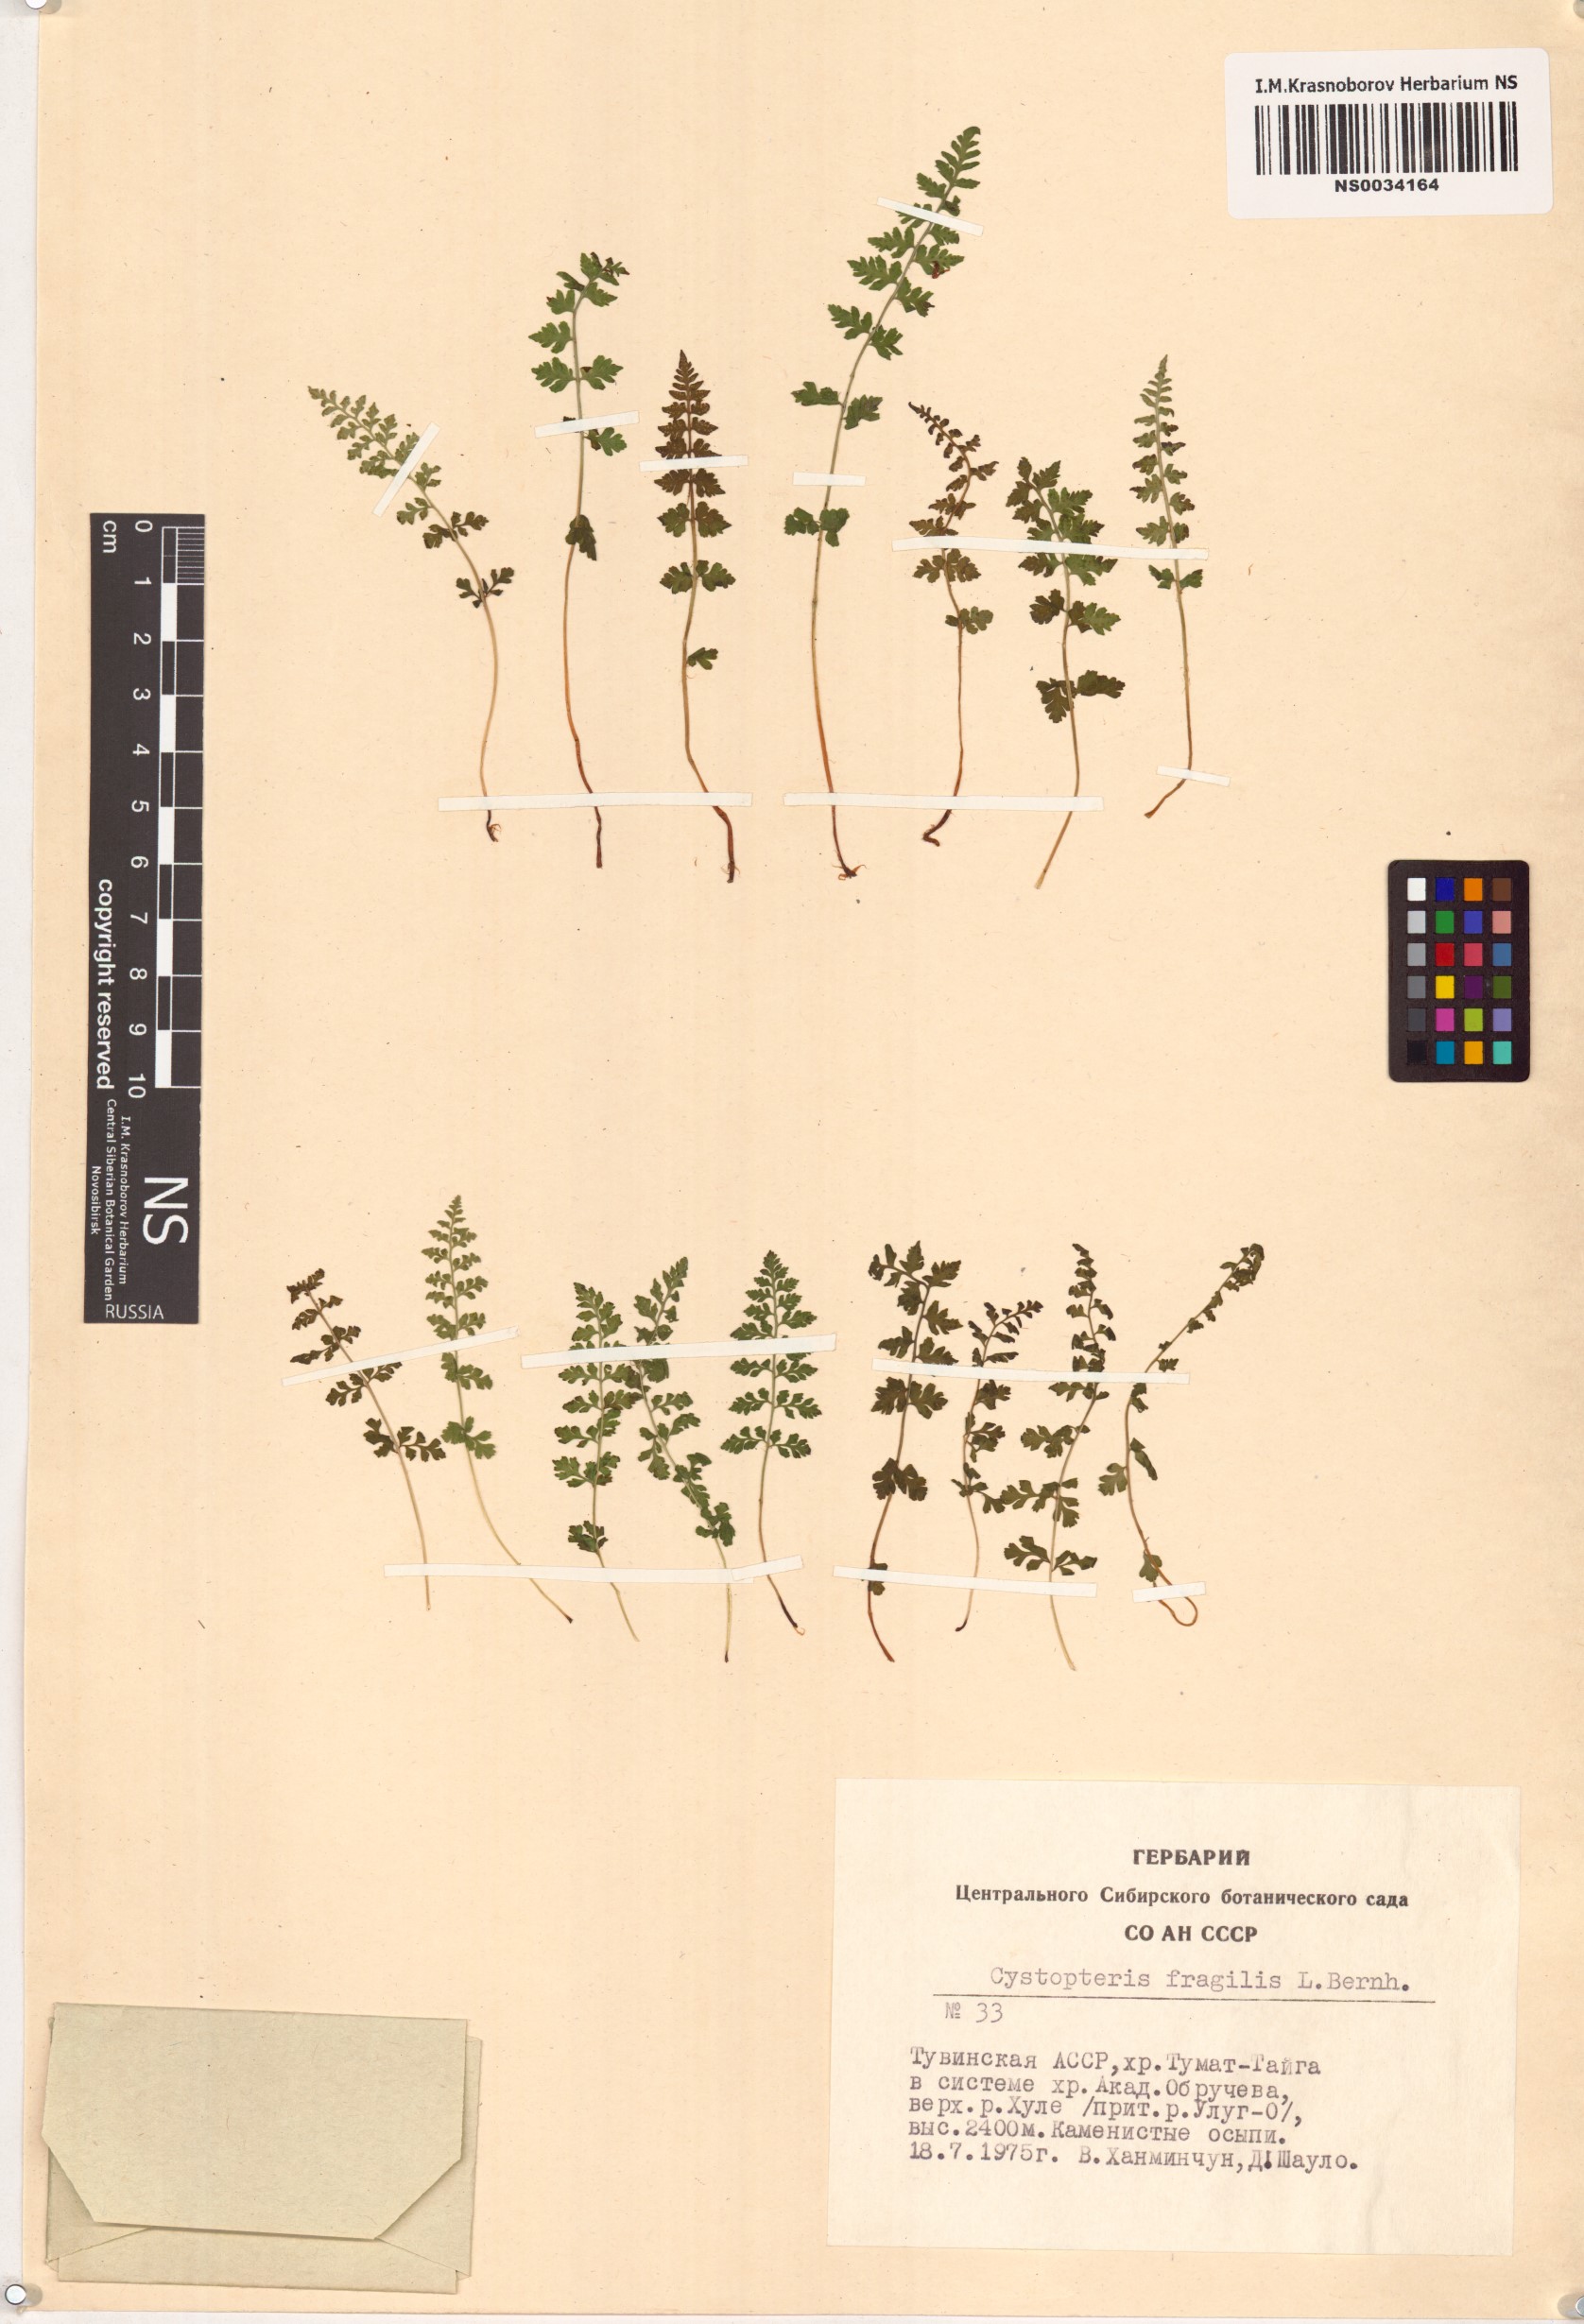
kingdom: Plantae
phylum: Tracheophyta
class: Polypodiopsida
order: Polypodiales
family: Cystopteridaceae
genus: Cystopteris
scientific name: Cystopteris fragilis
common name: Brittle bladder fern
